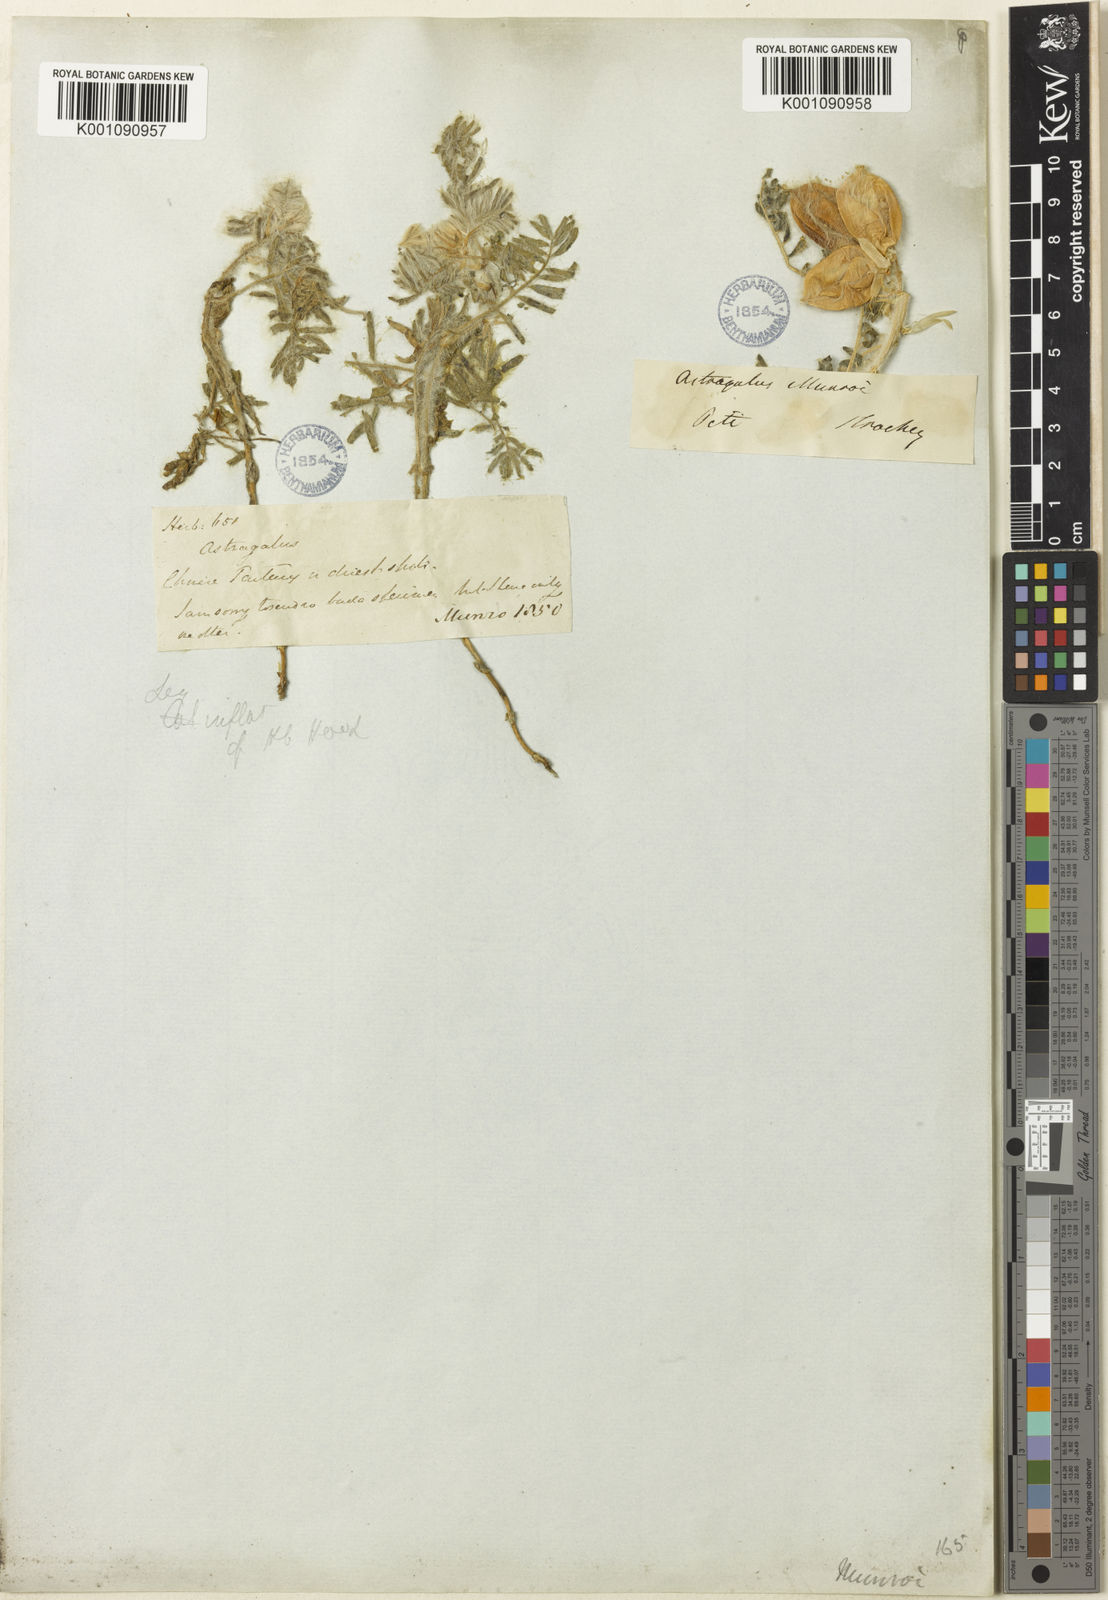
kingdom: Plantae
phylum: Tracheophyta
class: Magnoliopsida
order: Fabales
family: Fabaceae
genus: Astragalus
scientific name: Astragalus
